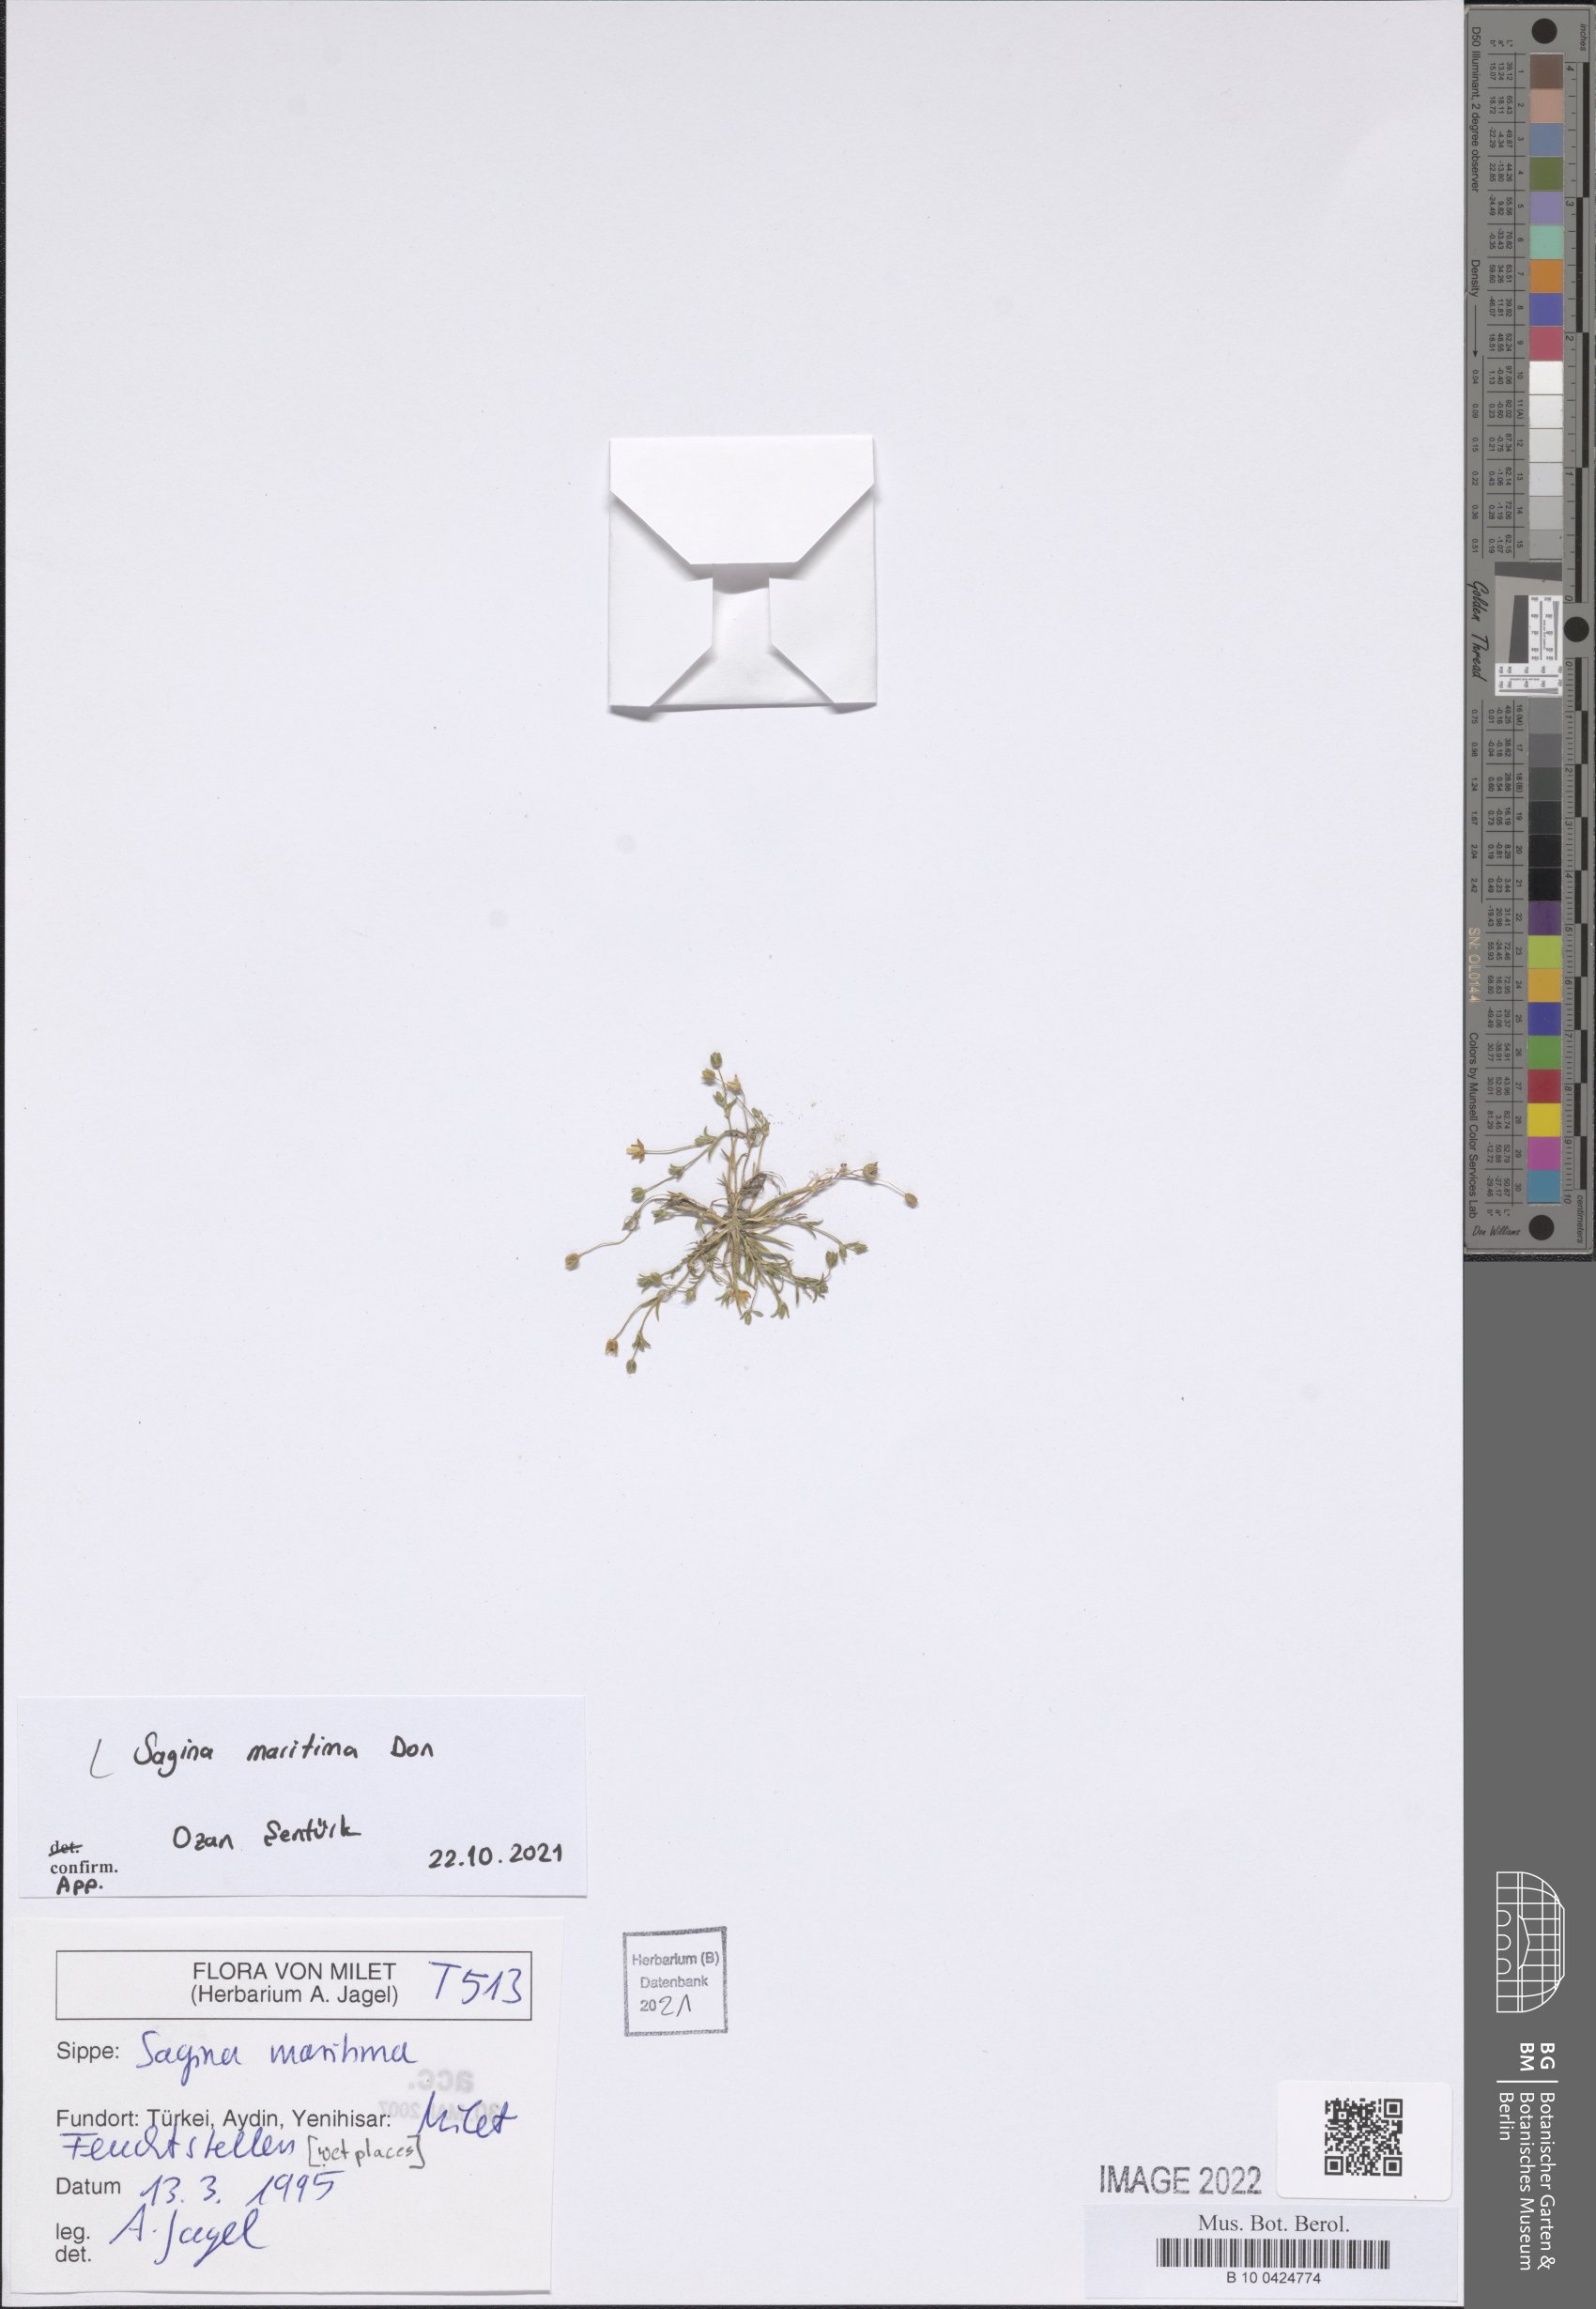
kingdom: Plantae
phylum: Tracheophyta
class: Magnoliopsida
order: Caryophyllales
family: Caryophyllaceae
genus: Sagina
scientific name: Sagina maritima
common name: Sea pearlwort
